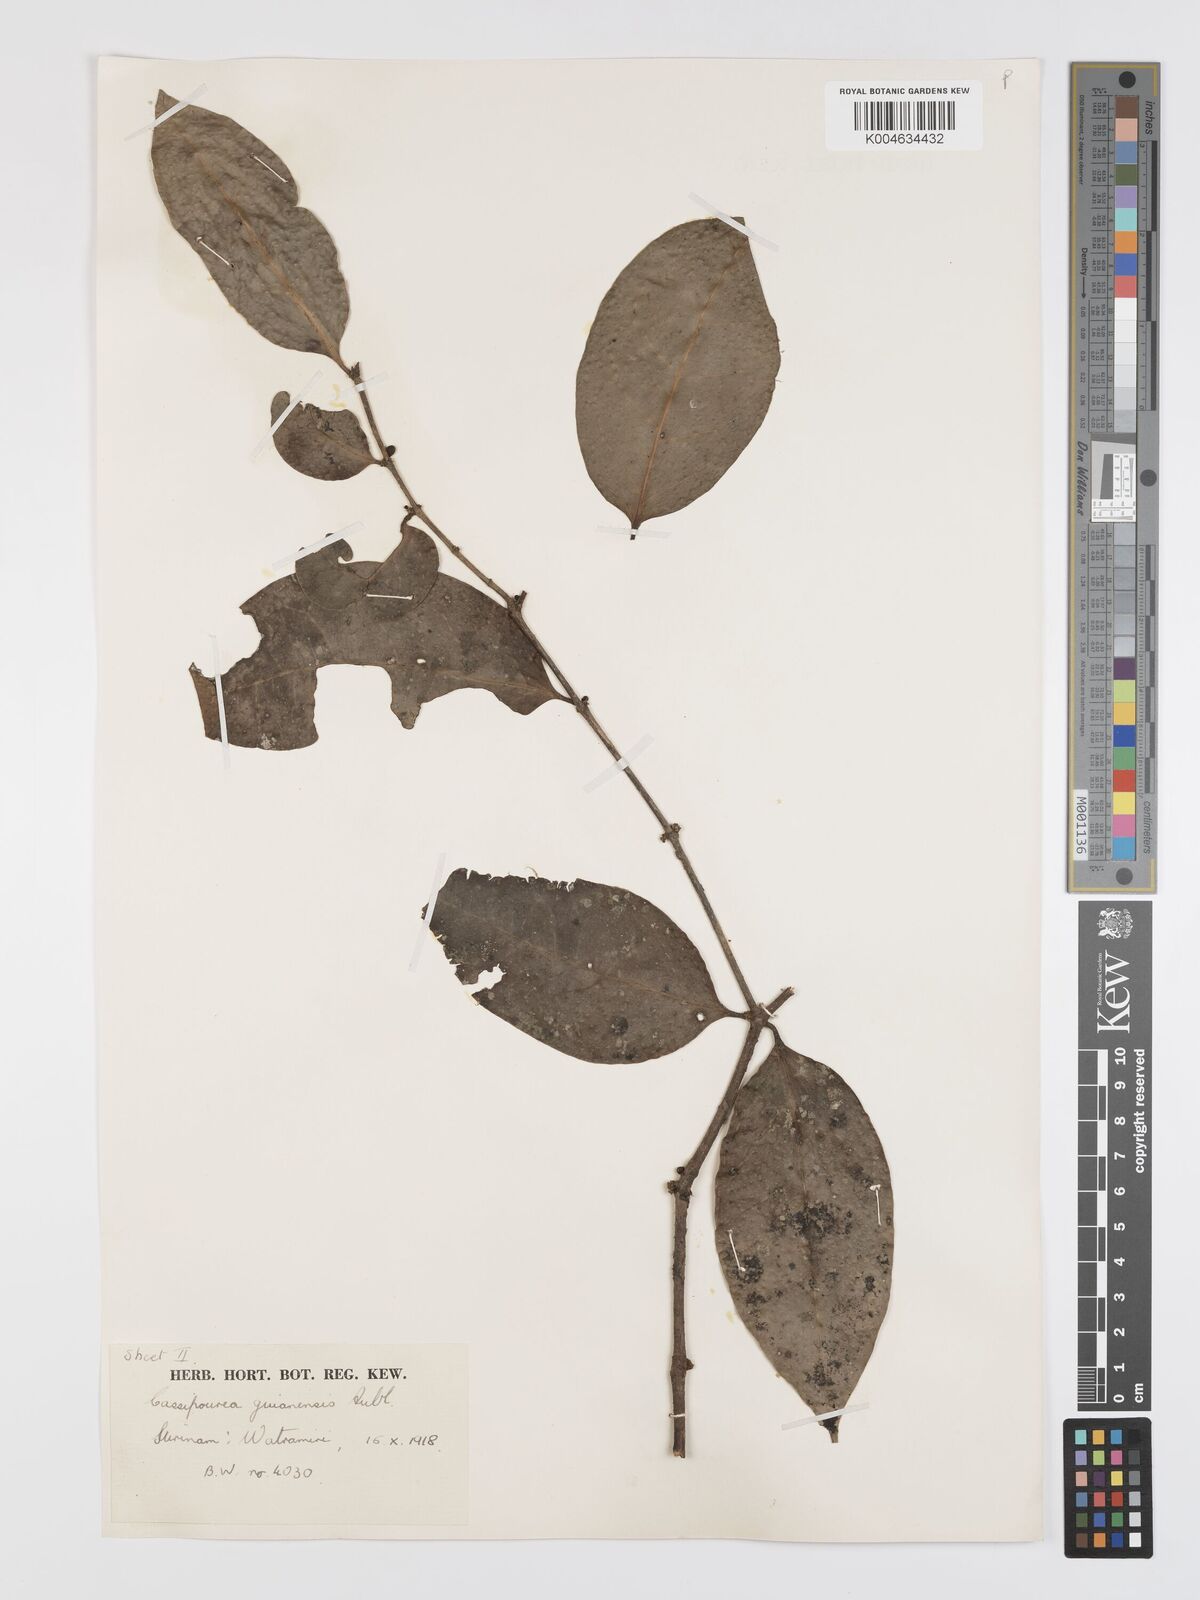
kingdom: Plantae
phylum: Tracheophyta
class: Magnoliopsida
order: Malpighiales
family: Rhizophoraceae
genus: Cassipourea
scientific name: Cassipourea guianensis
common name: Bastard waterwood
